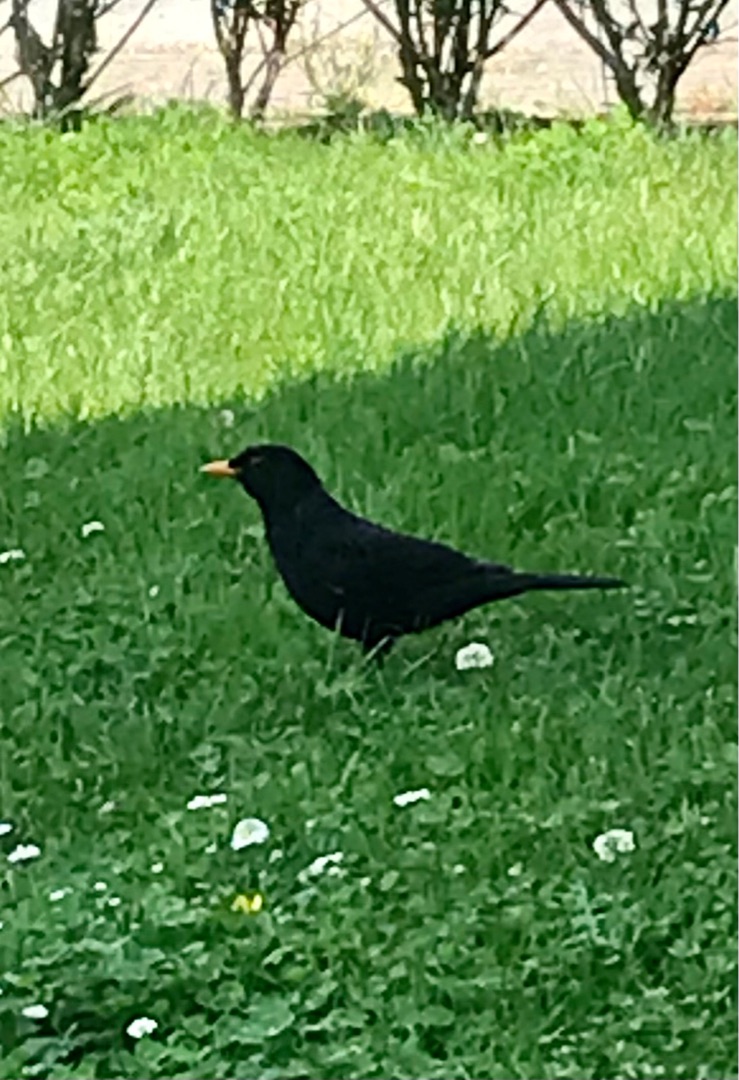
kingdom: Animalia
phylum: Chordata
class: Aves
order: Passeriformes
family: Turdidae
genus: Turdus
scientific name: Turdus merula
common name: Solsort
